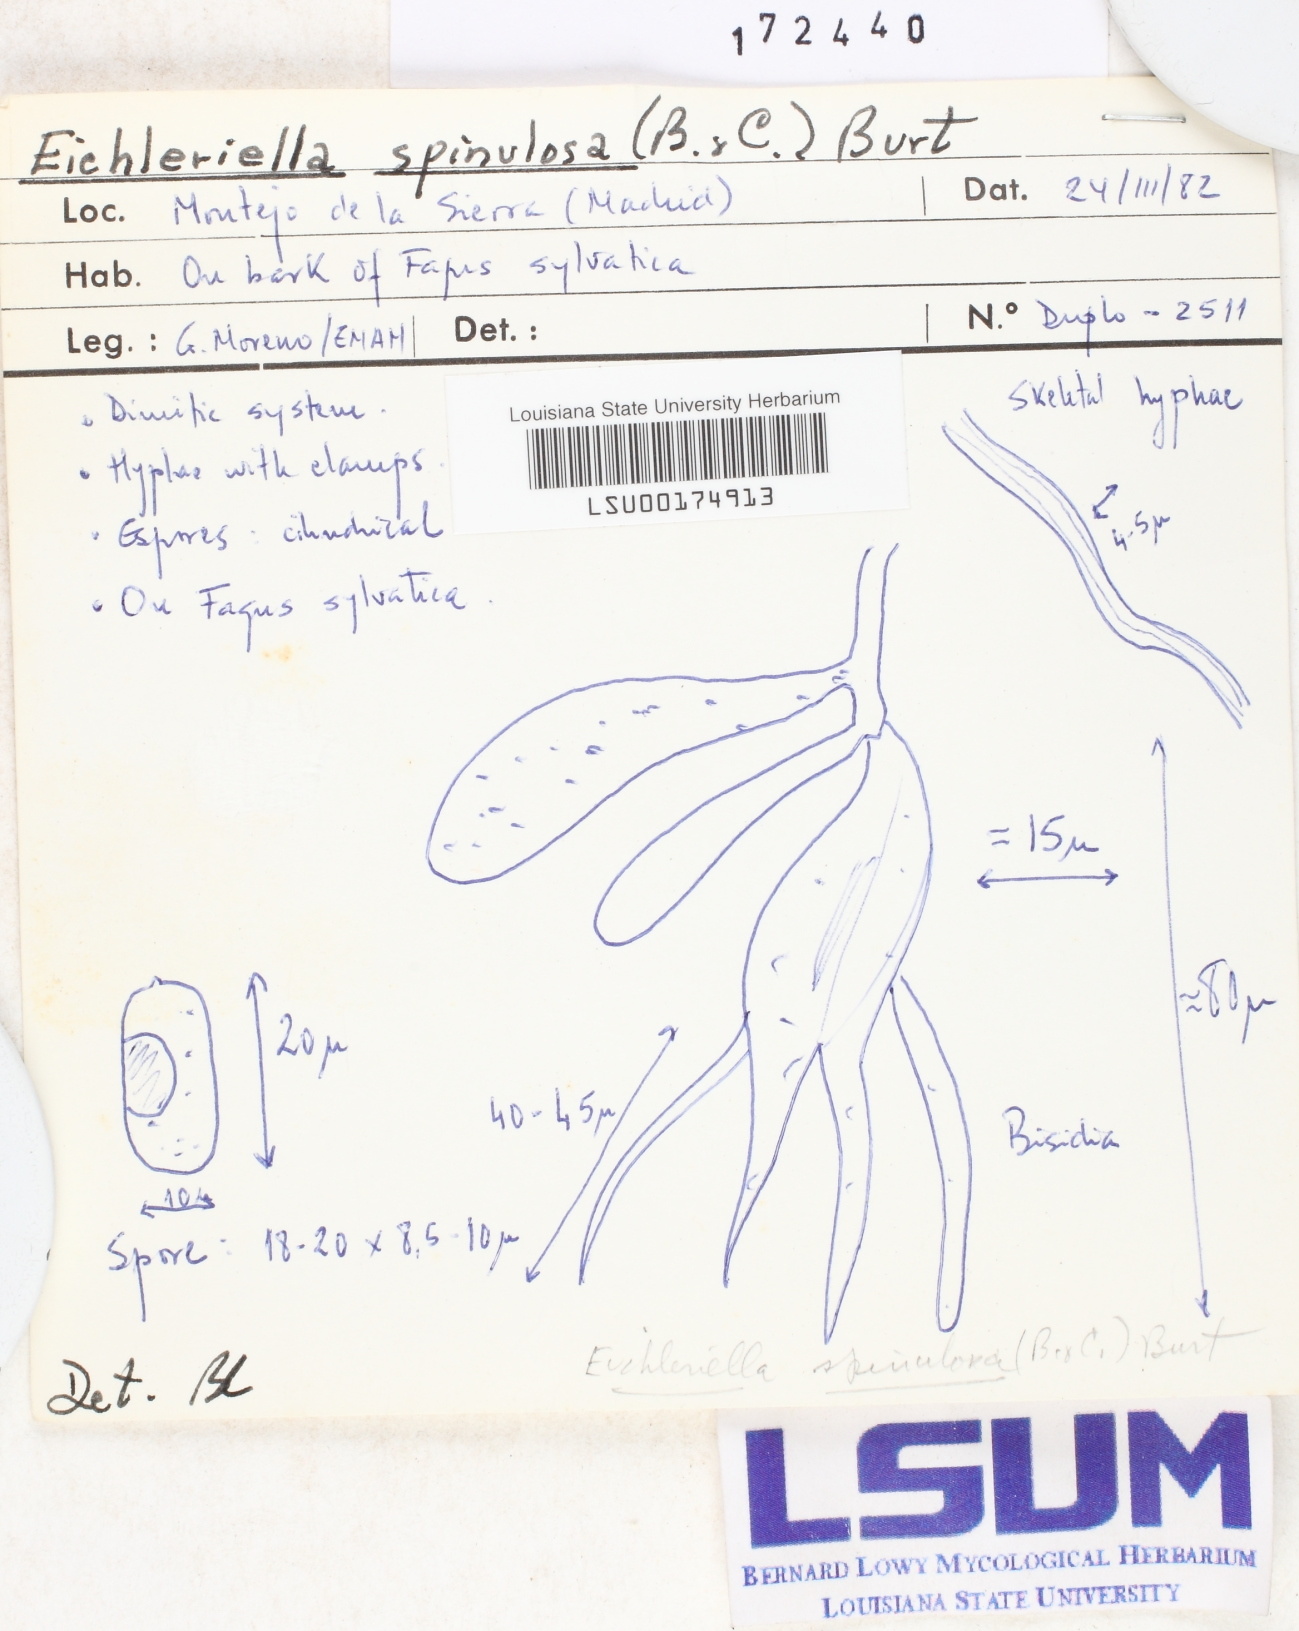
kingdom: Fungi
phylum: Basidiomycota
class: Agaricomycetes
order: Auriculariales
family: Auriculariaceae
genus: Heteroradulum
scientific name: Heteroradulum spinulosum
